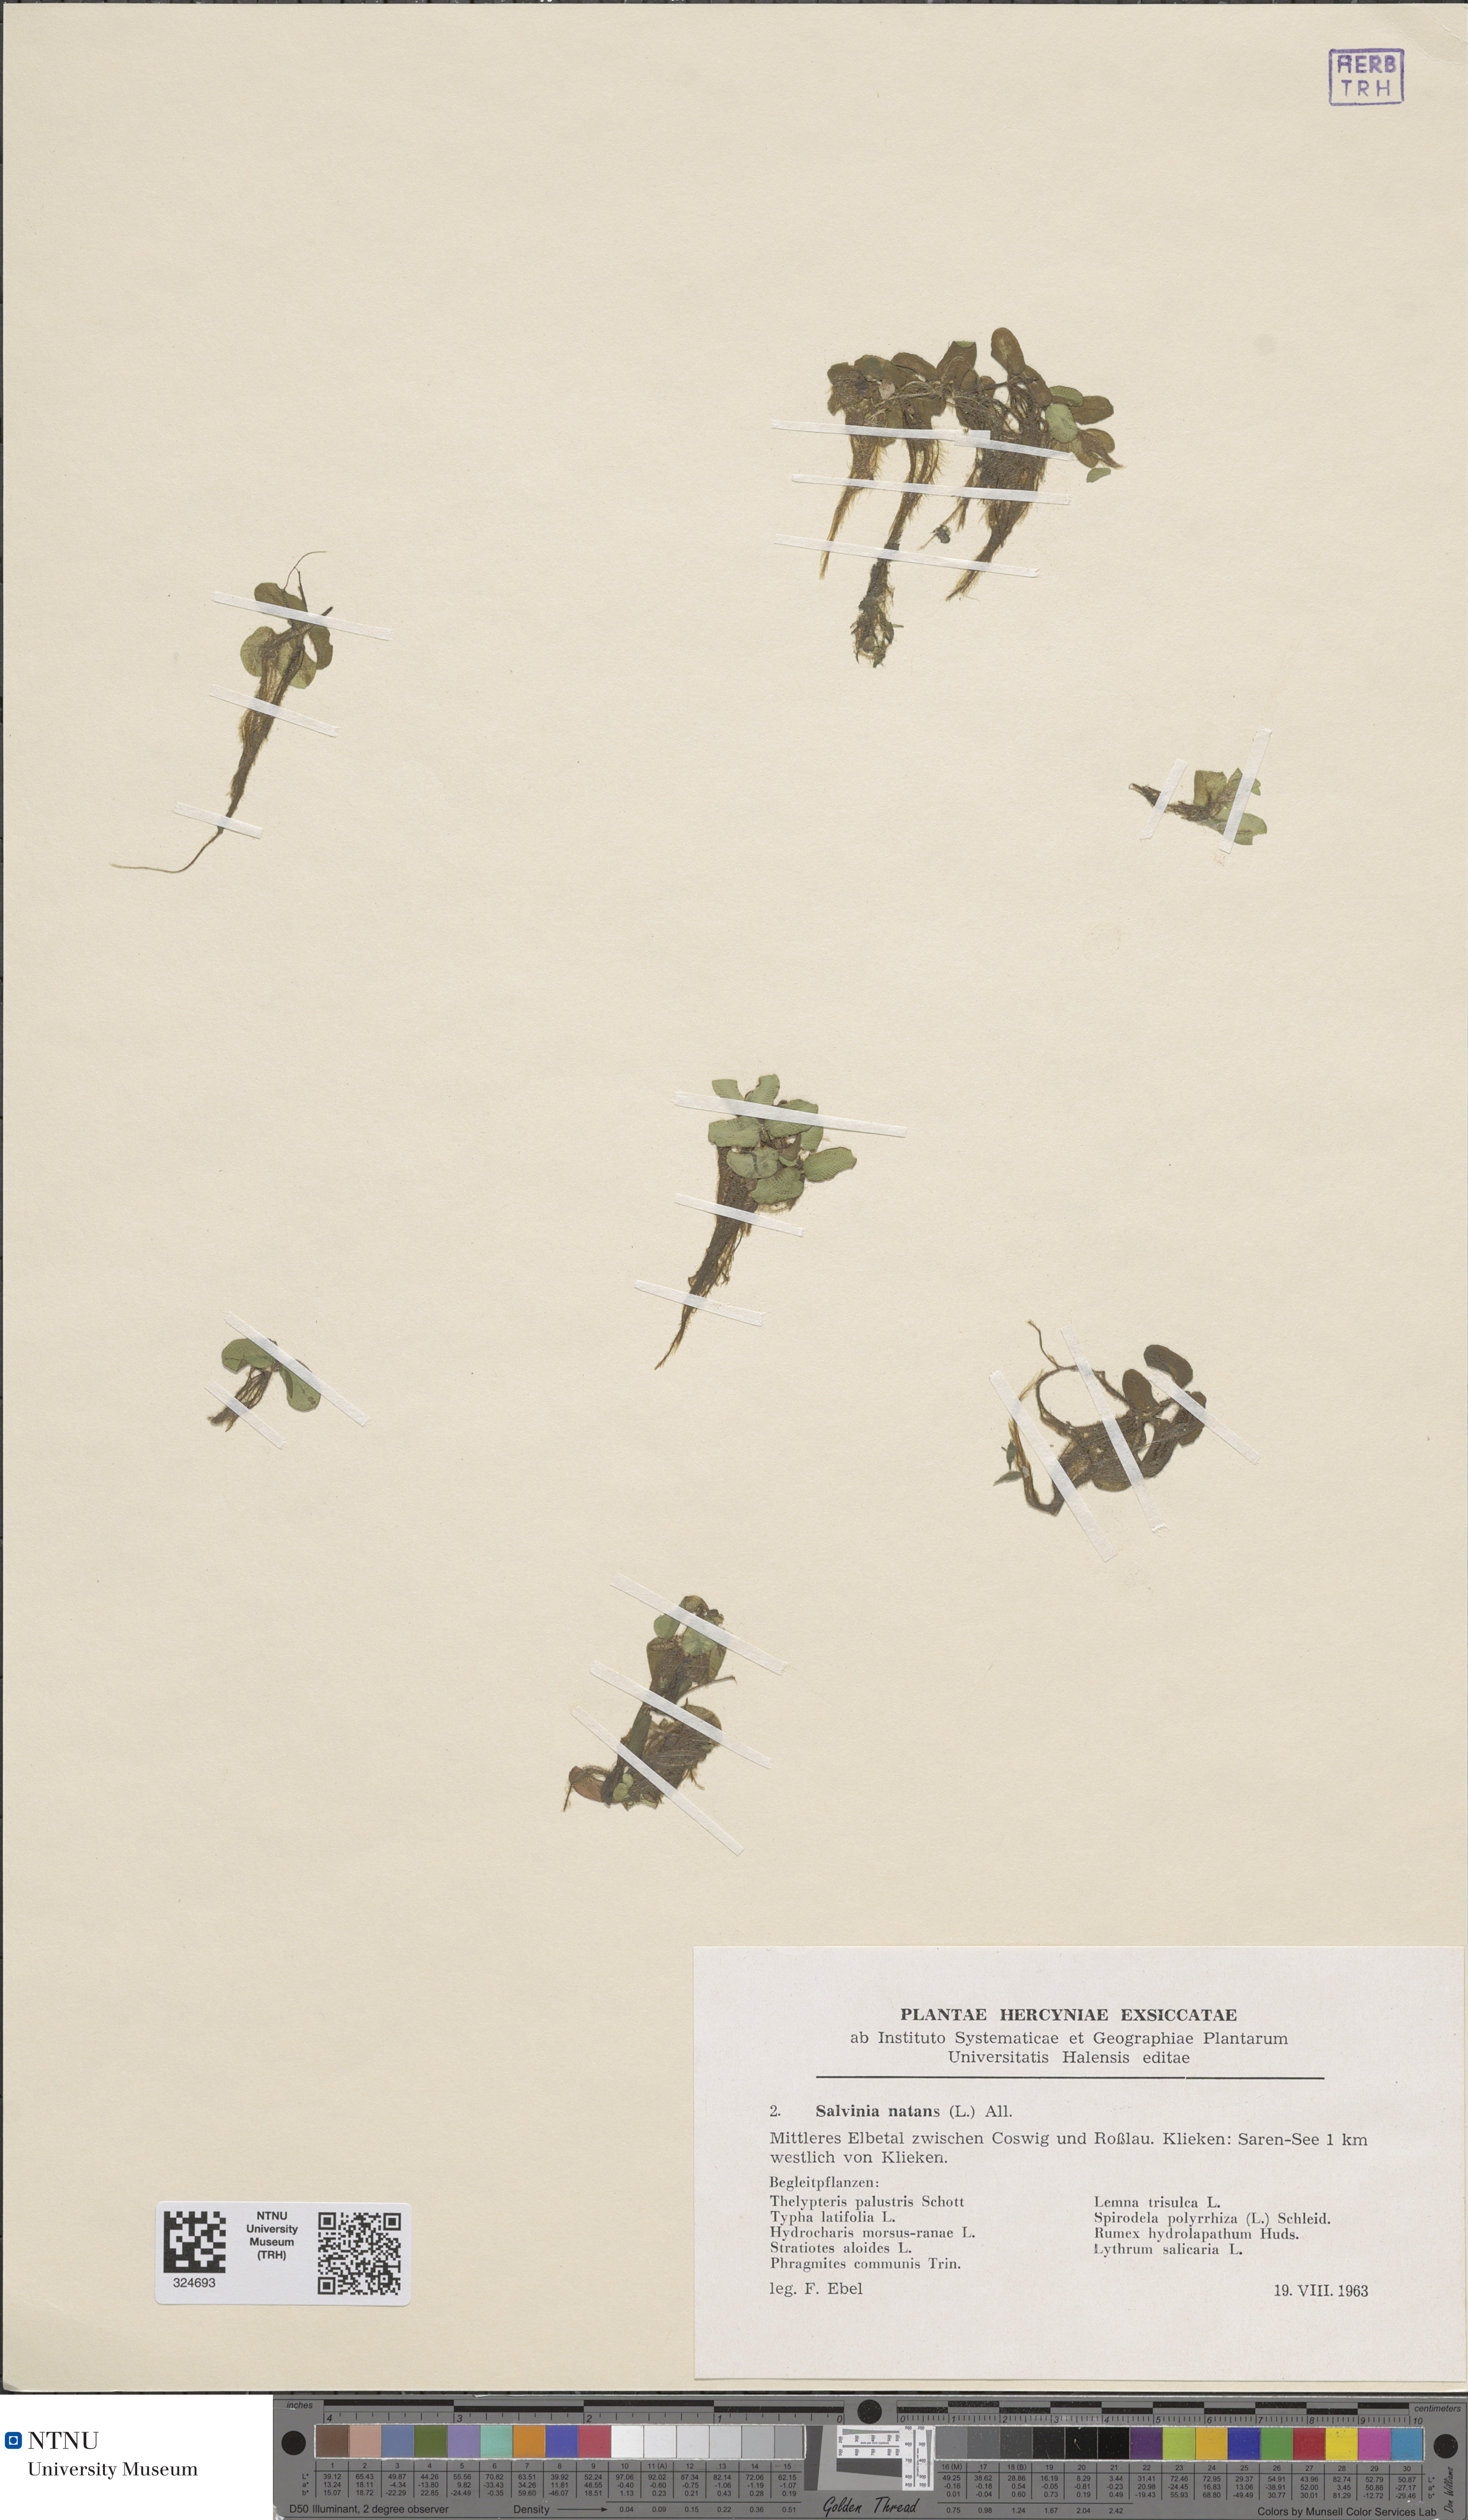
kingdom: Plantae
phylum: Tracheophyta
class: Polypodiopsida
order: Salviniales
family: Salviniaceae
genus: Salvinia
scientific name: Salvinia natans
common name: Floating fern
